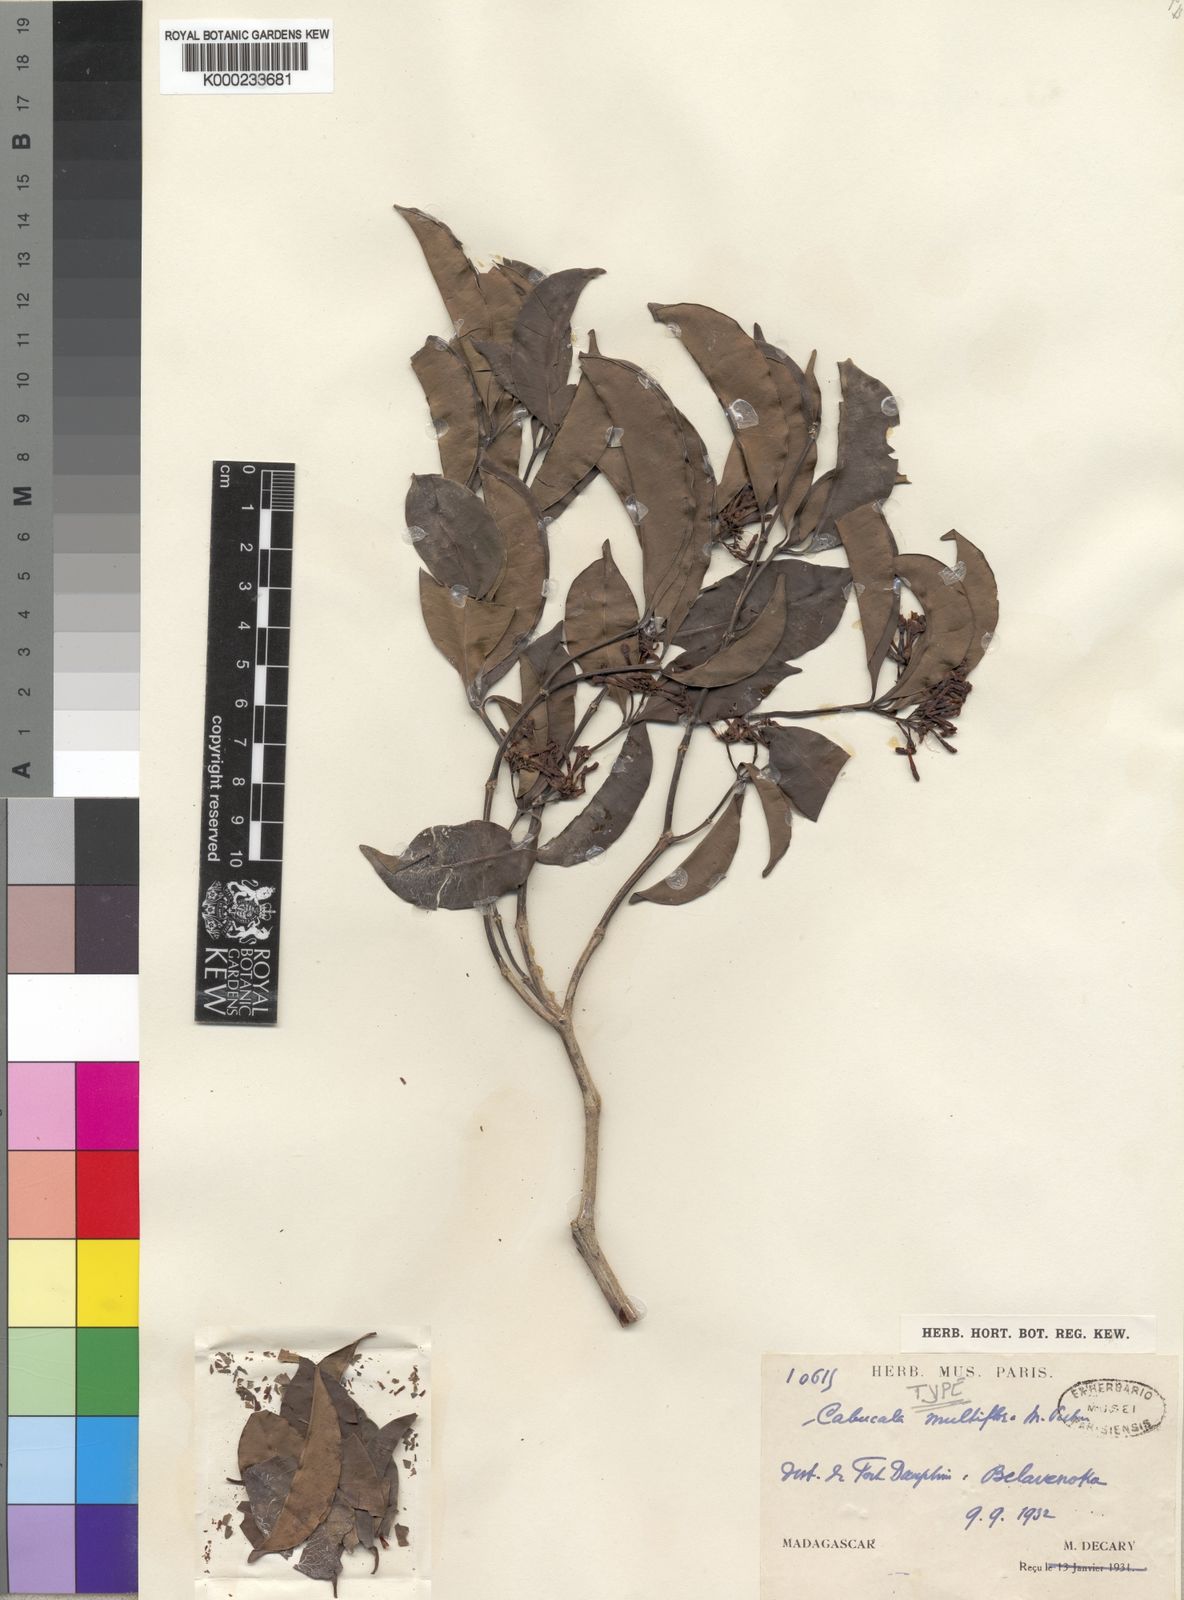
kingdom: Plantae
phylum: Tracheophyta
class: Magnoliopsida
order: Gentianales
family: Apocynaceae
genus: Petchia
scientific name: Petchia madagascariensis
